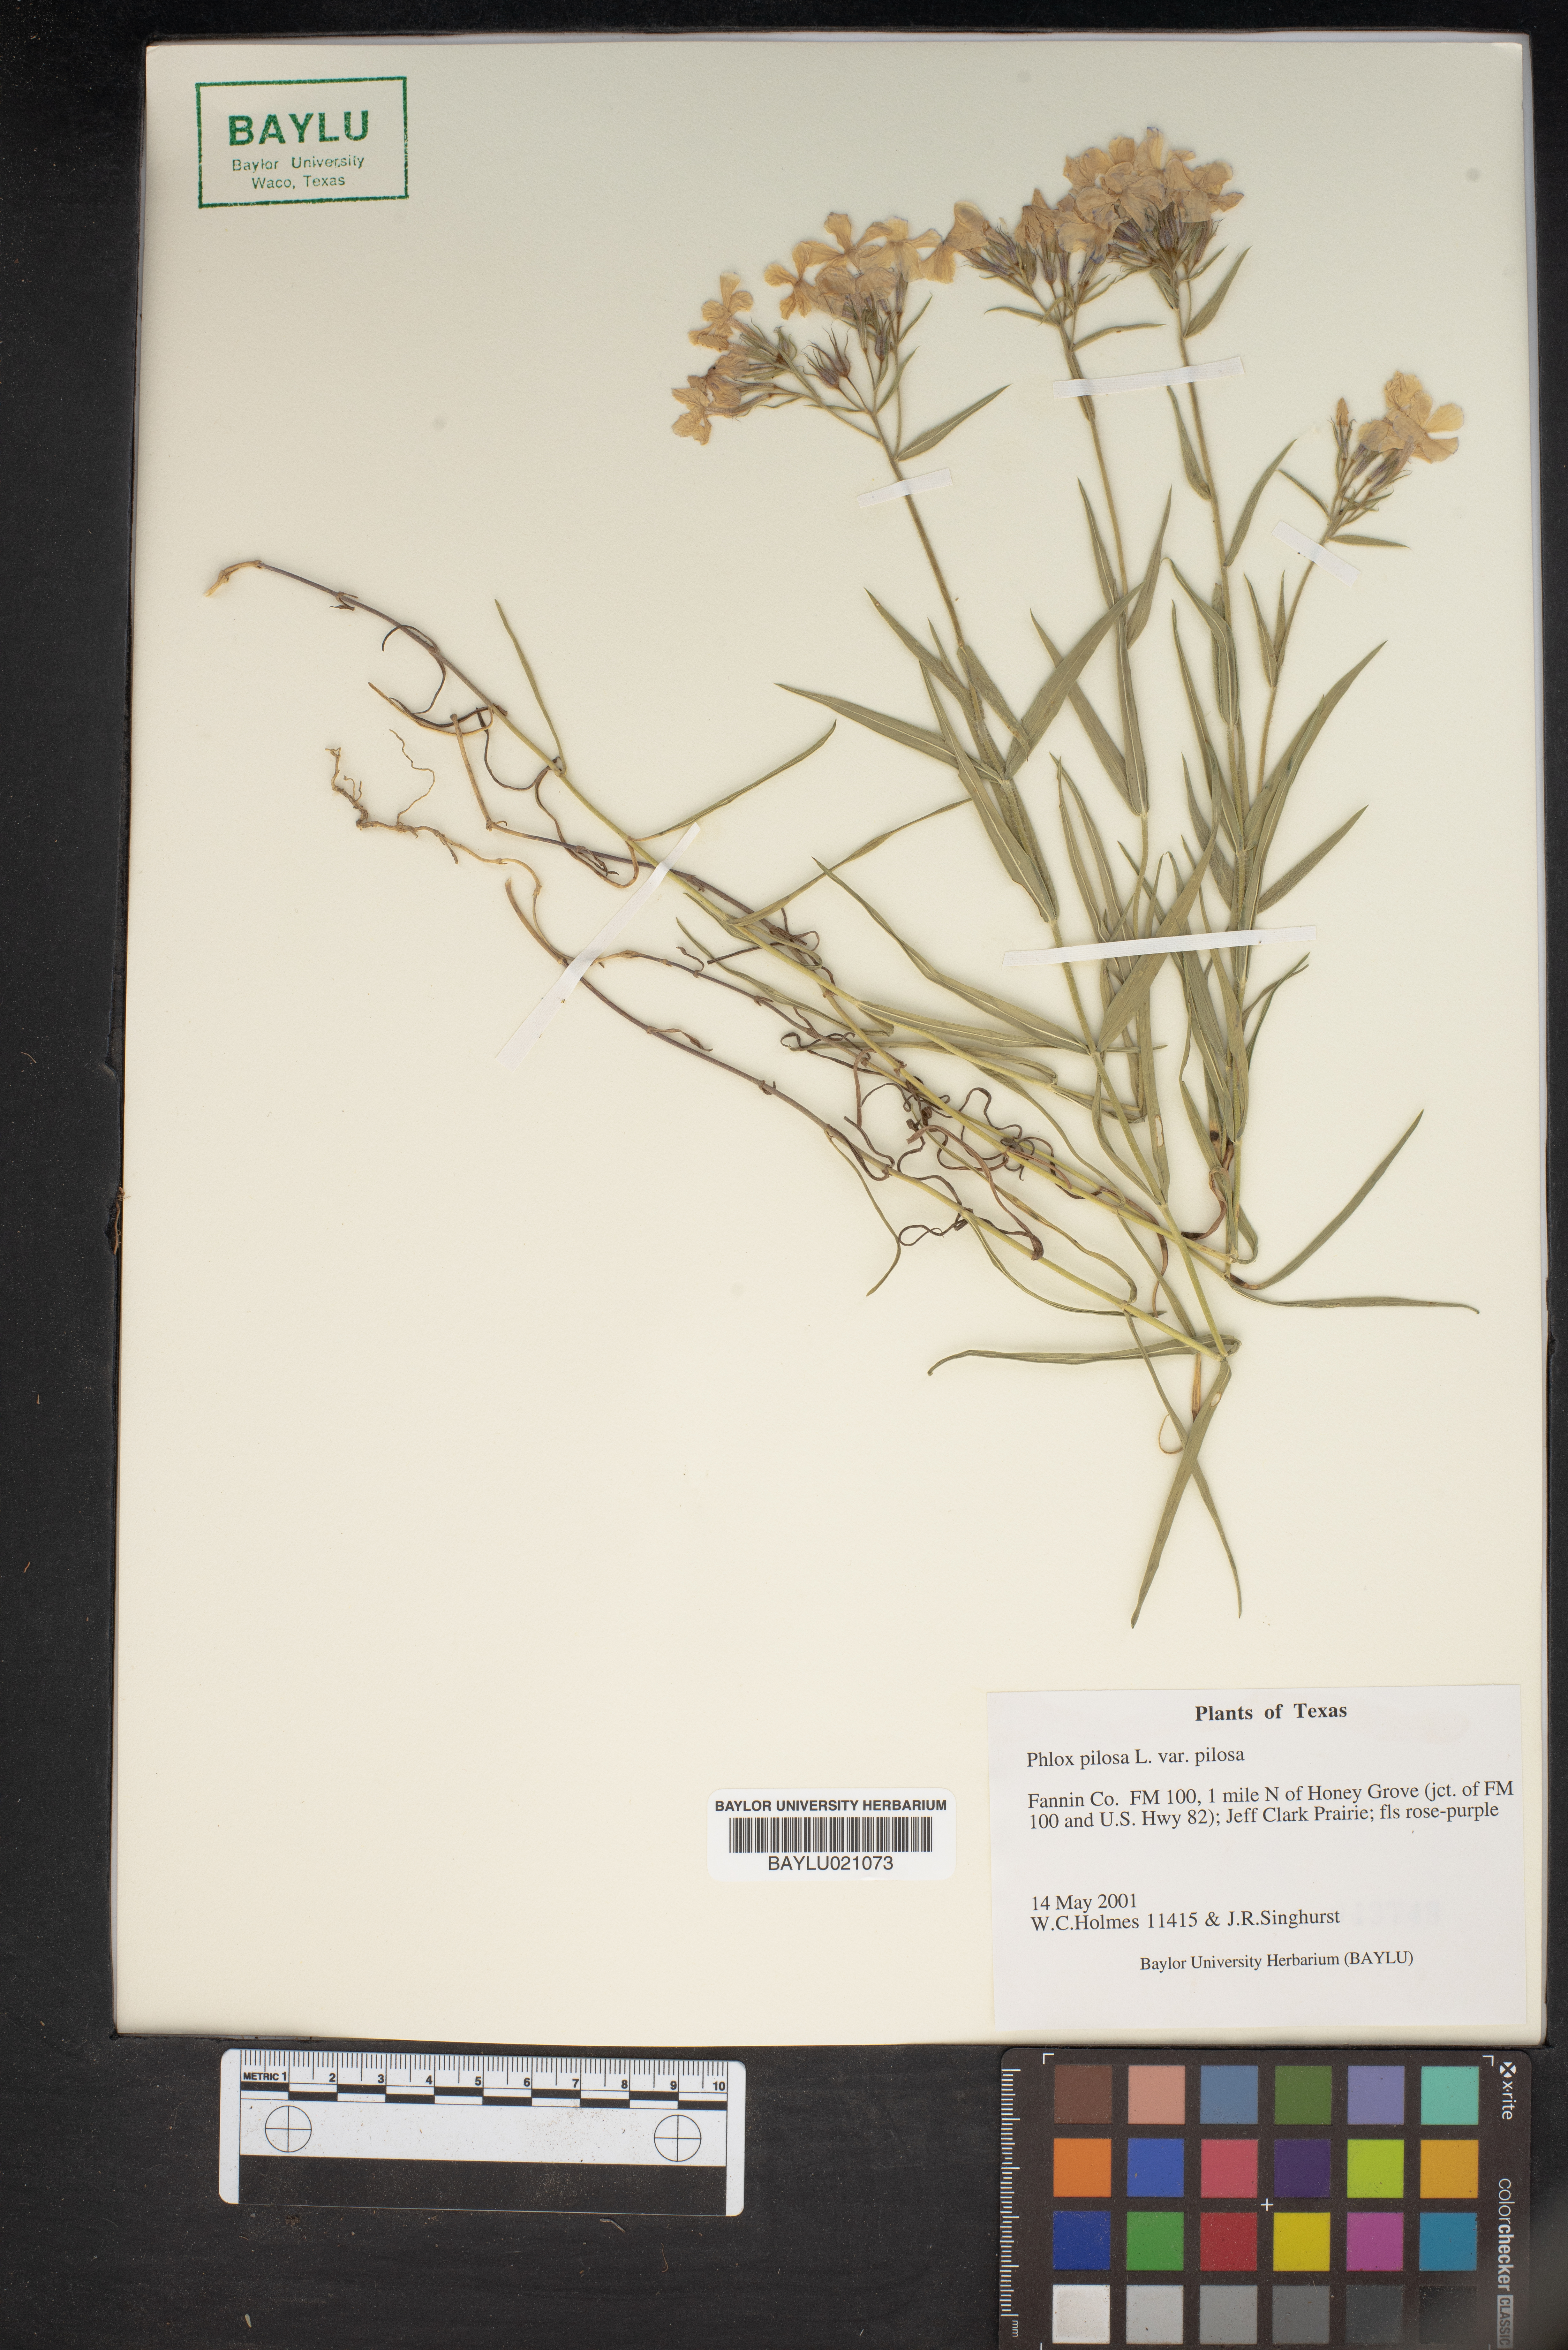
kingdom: Plantae
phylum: Tracheophyta
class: Magnoliopsida
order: Ericales
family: Polemoniaceae
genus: Phlox
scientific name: Phlox pilosa
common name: Prairie phlox
